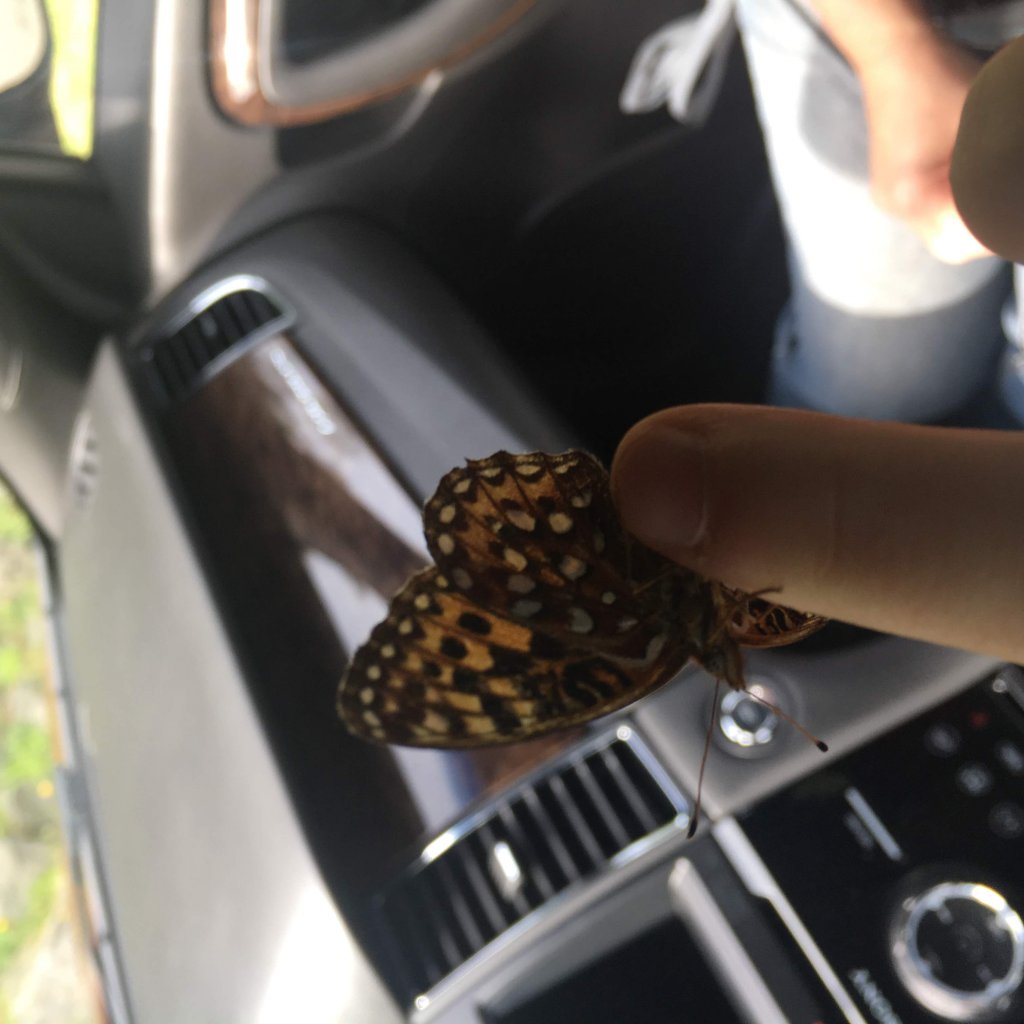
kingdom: Animalia
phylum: Arthropoda
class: Insecta
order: Lepidoptera
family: Nymphalidae
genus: Speyeria
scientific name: Speyeria zerene
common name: Zerene Fritillary
